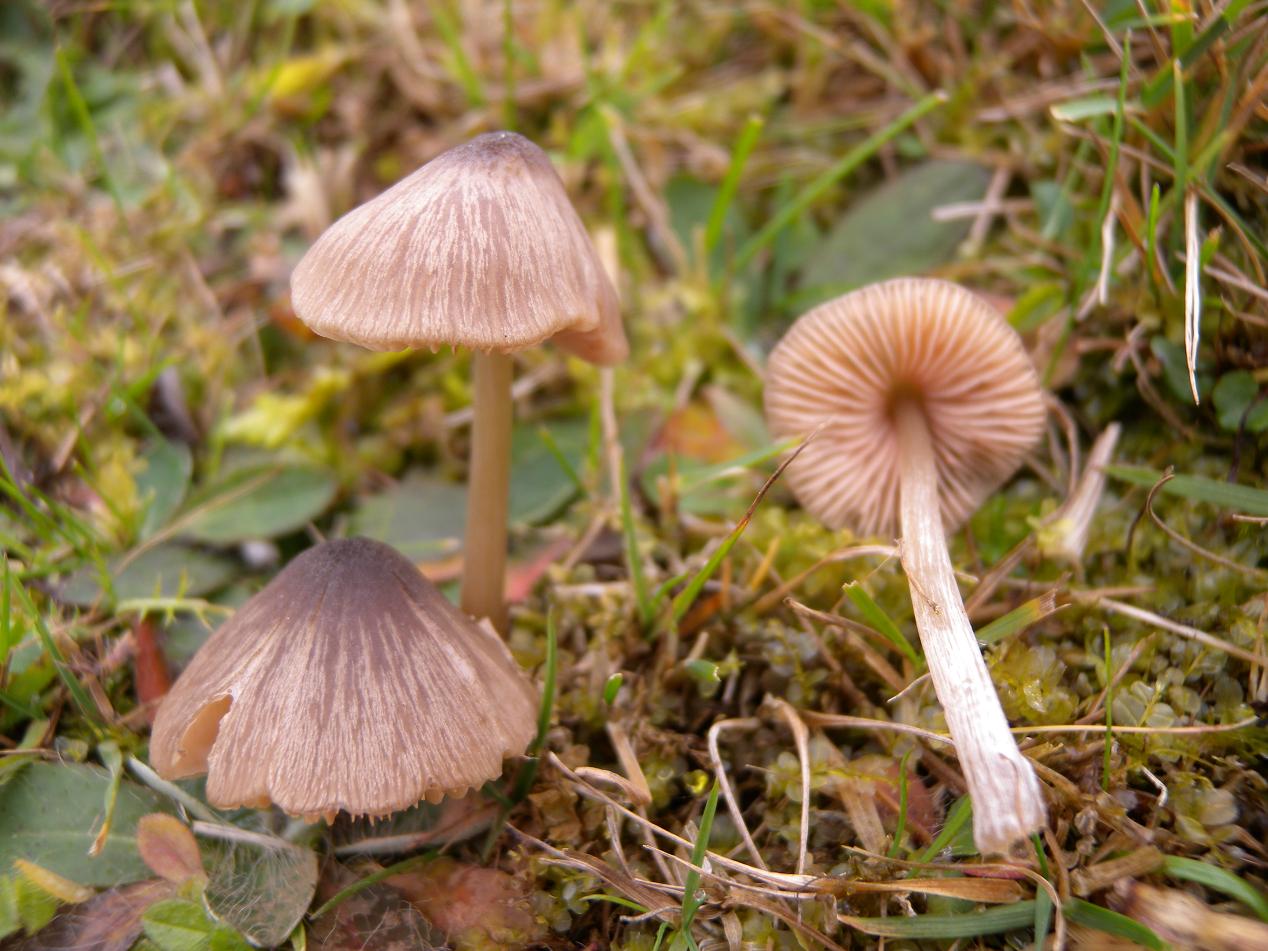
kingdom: Fungi
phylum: Basidiomycota
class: Agaricomycetes
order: Agaricales
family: Entolomataceae
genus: Entoloma
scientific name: Entoloma conferendum
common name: stjernesporet rødblad
